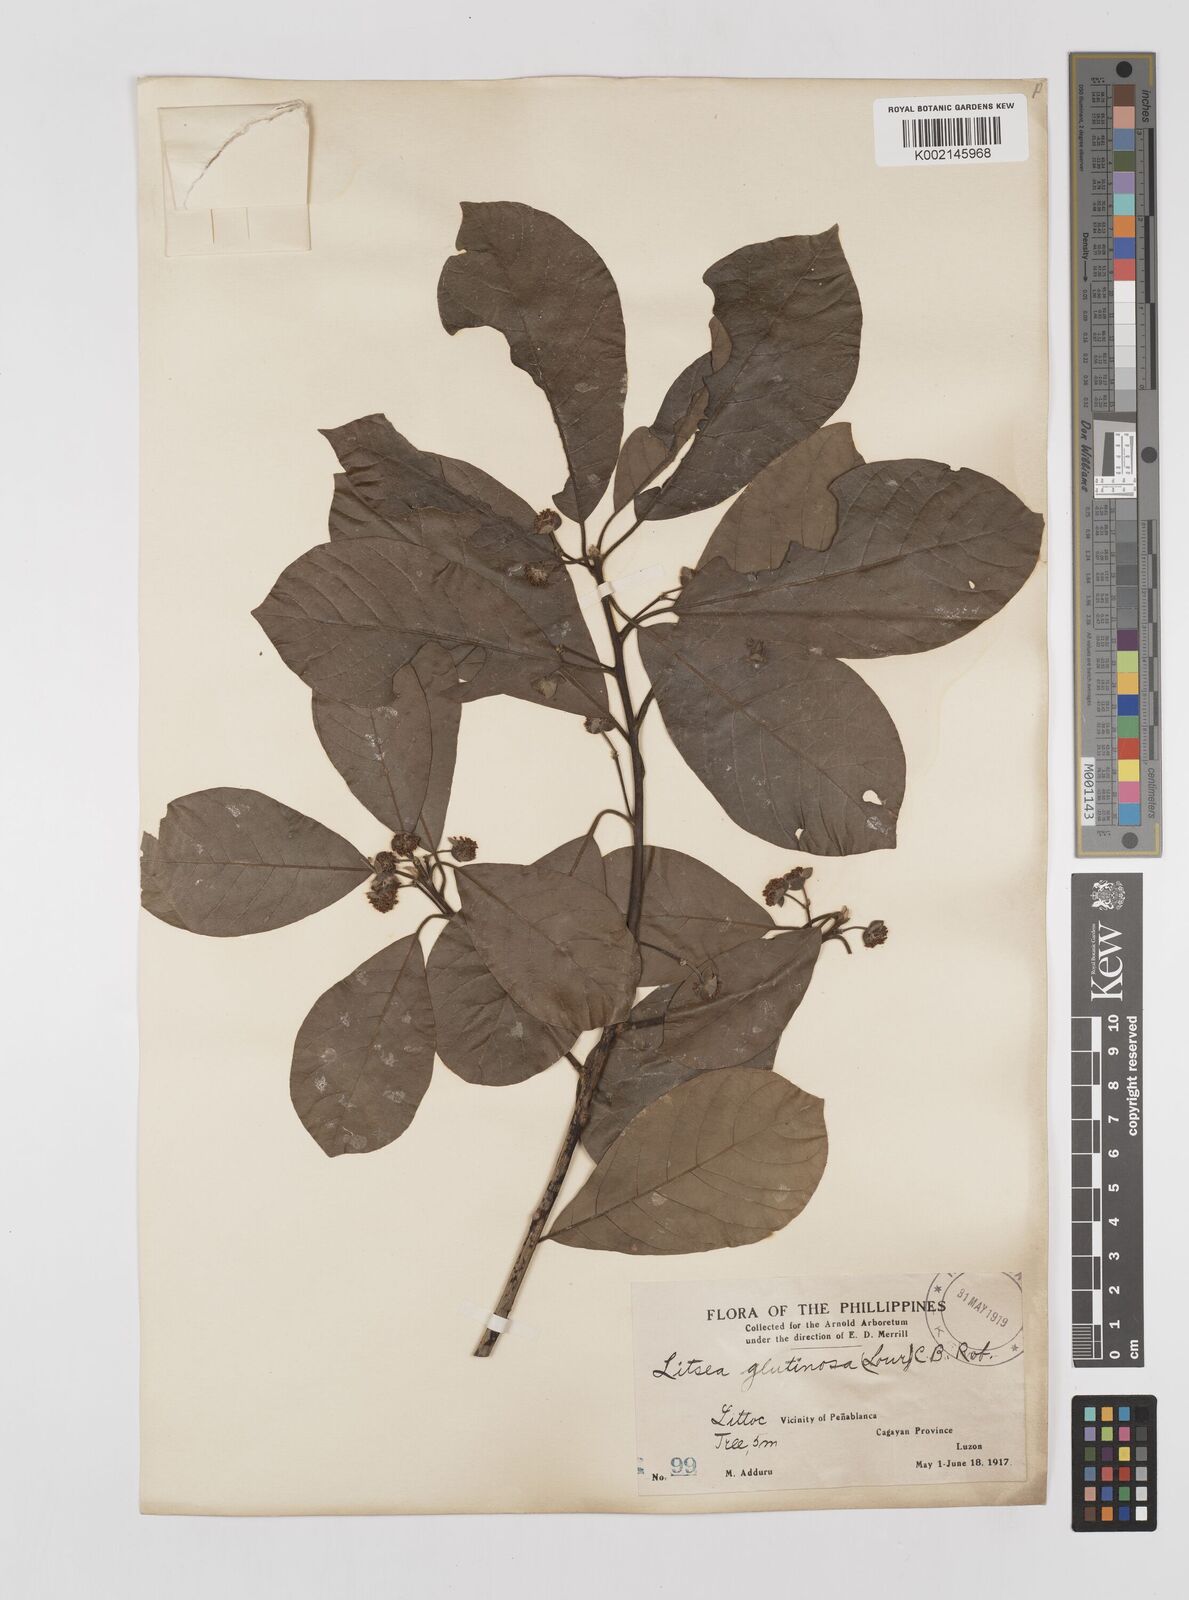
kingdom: Plantae
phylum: Tracheophyta
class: Magnoliopsida
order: Laurales
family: Lauraceae
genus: Litsea
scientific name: Litsea glutinosa
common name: Indian-laurel
